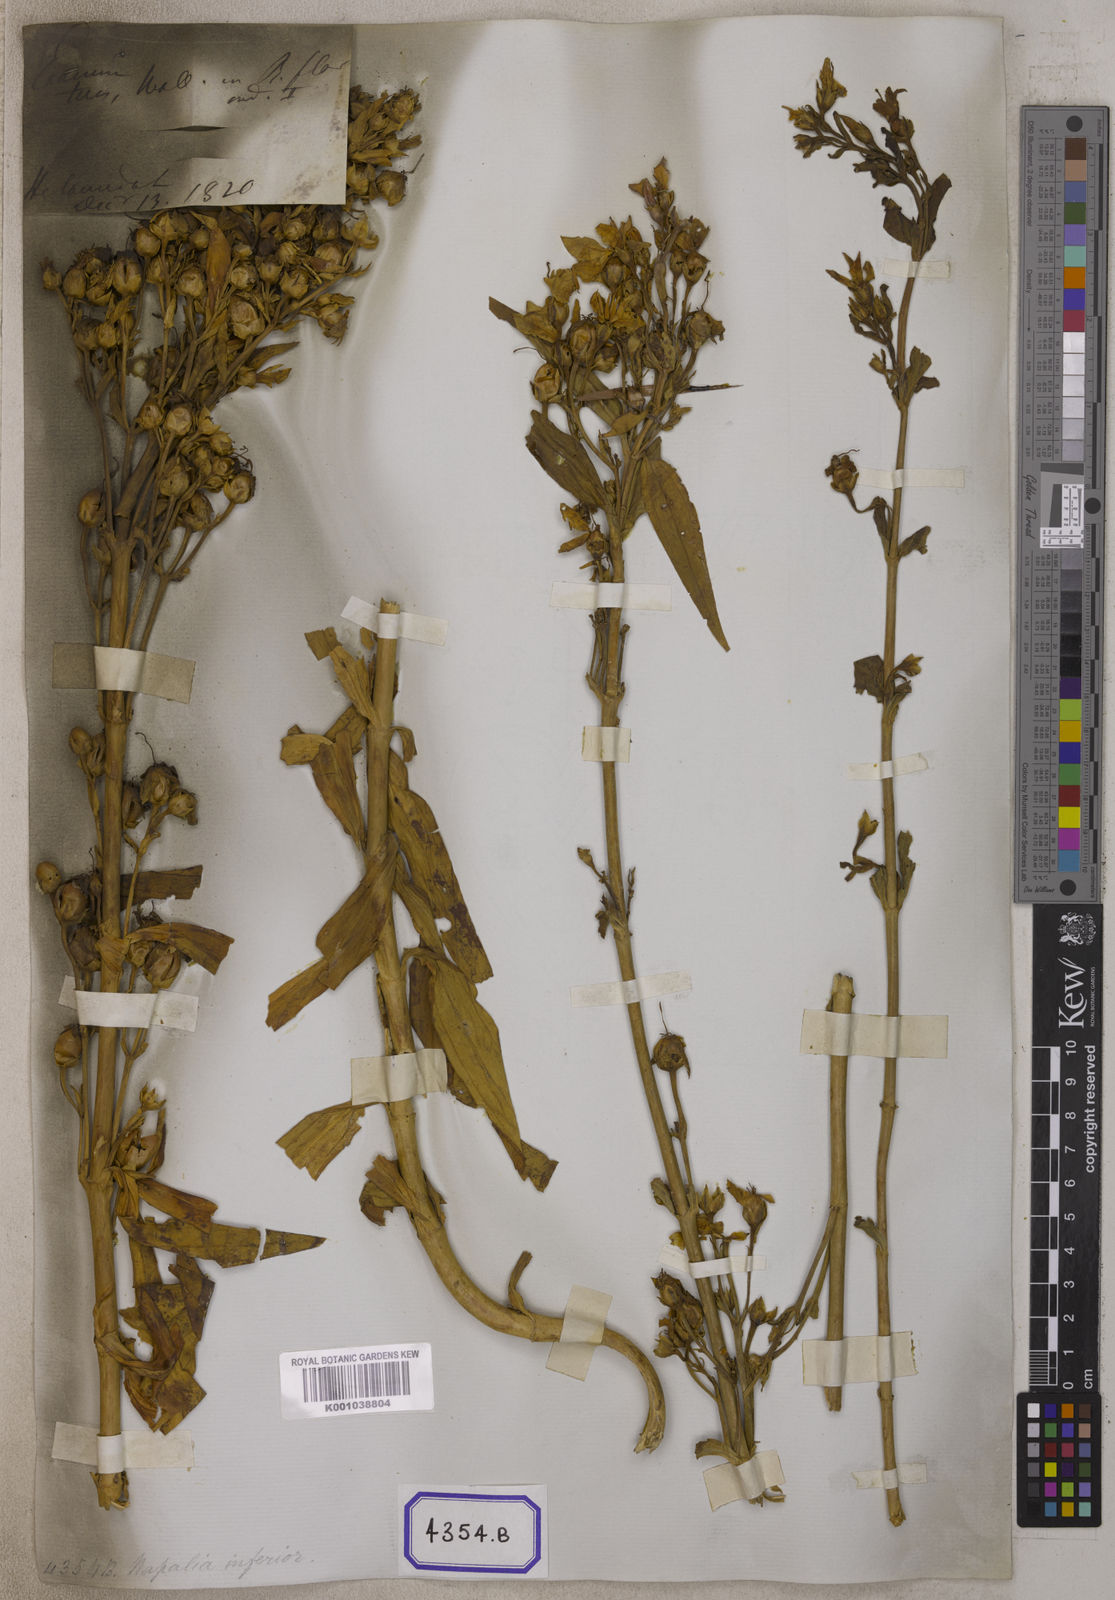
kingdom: Plantae
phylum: Tracheophyta
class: Magnoliopsida
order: Gentianales
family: Gentianaceae
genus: Exacum
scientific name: Exacum teres
